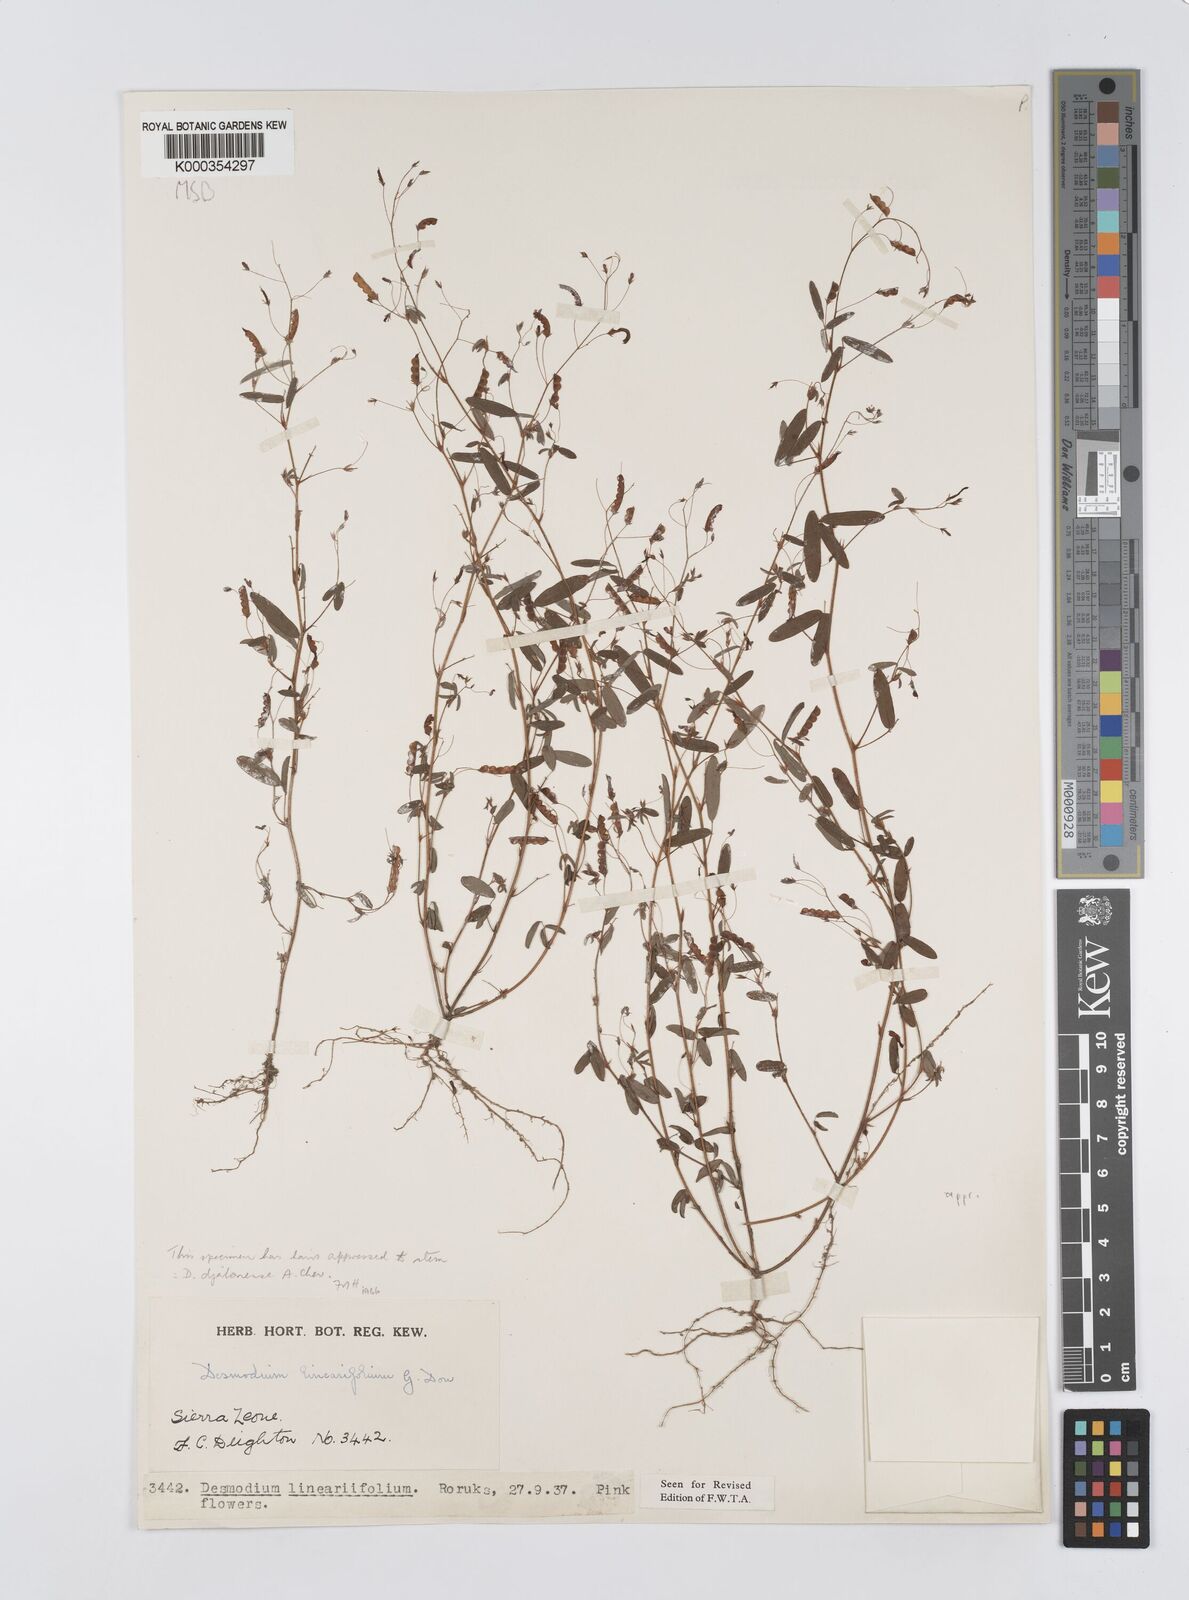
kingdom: Plantae
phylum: Tracheophyta
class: Magnoliopsida
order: Fabales
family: Fabaceae
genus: Desmodium
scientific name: Desmodium linearifolium
